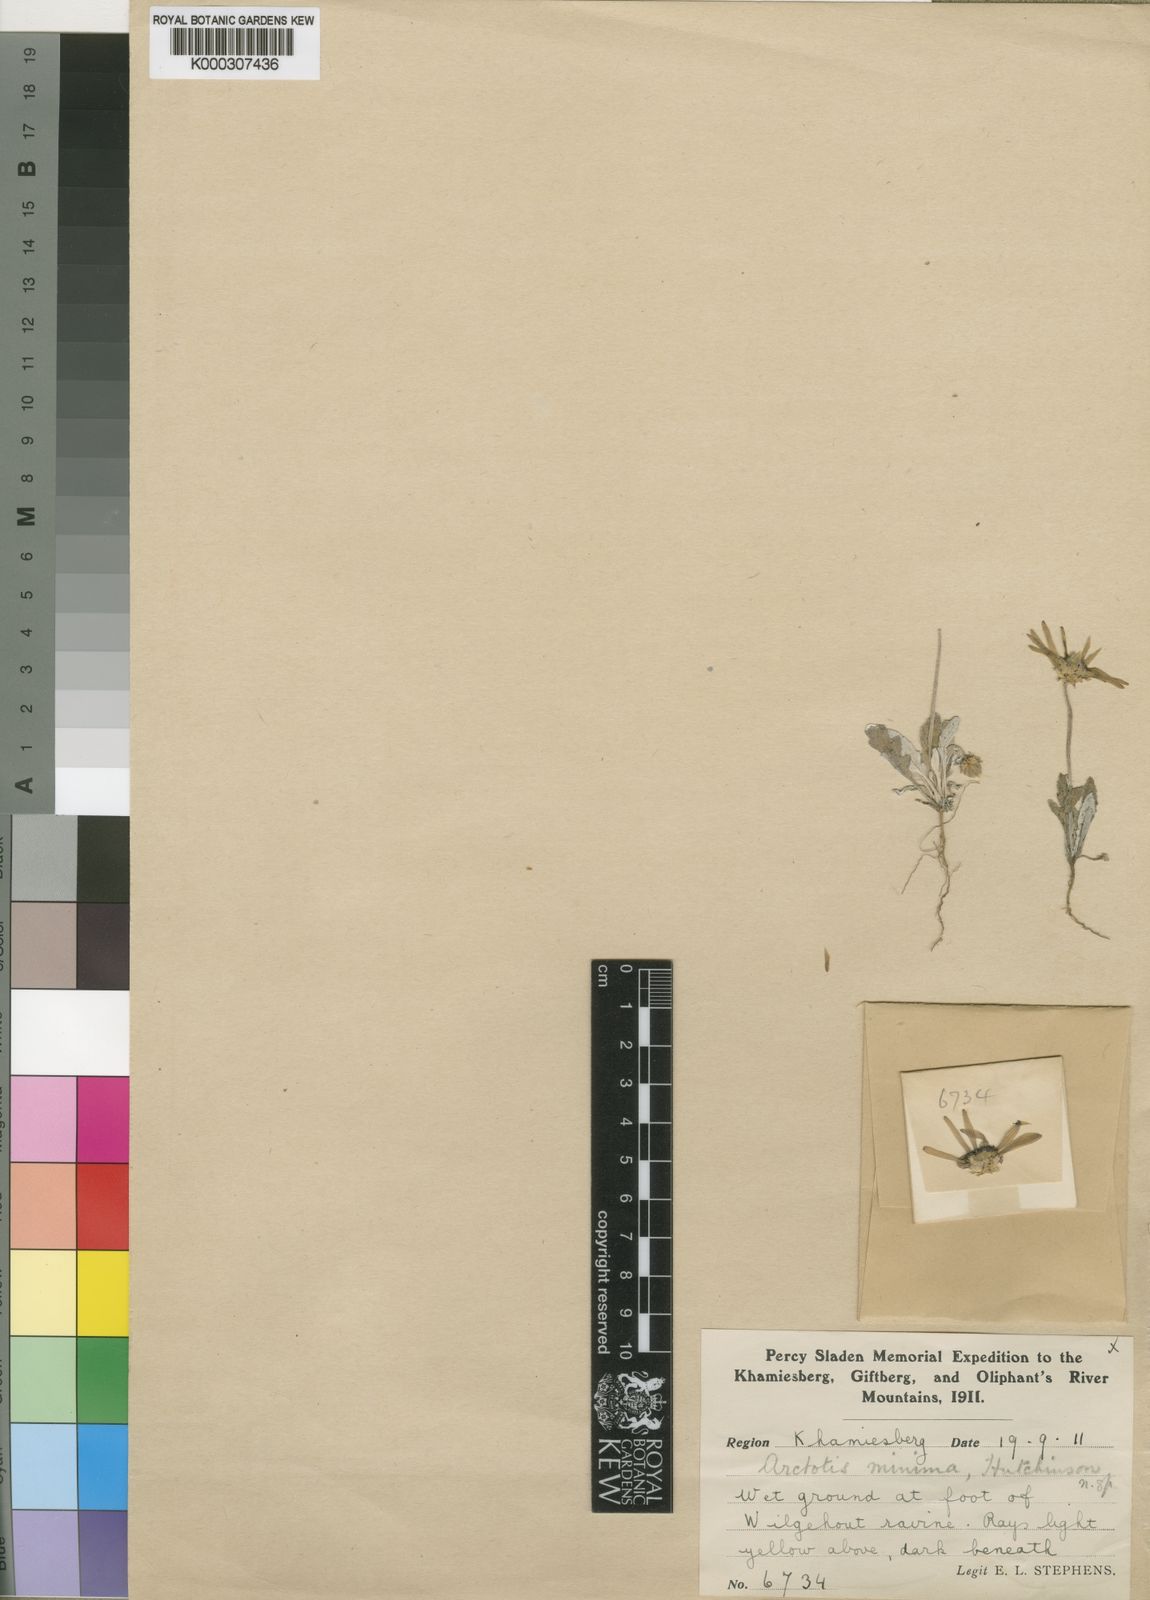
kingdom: Plantae
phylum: Tracheophyta
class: Magnoliopsida
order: Asterales
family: Asteraceae
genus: Arctotis
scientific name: Arctotis
